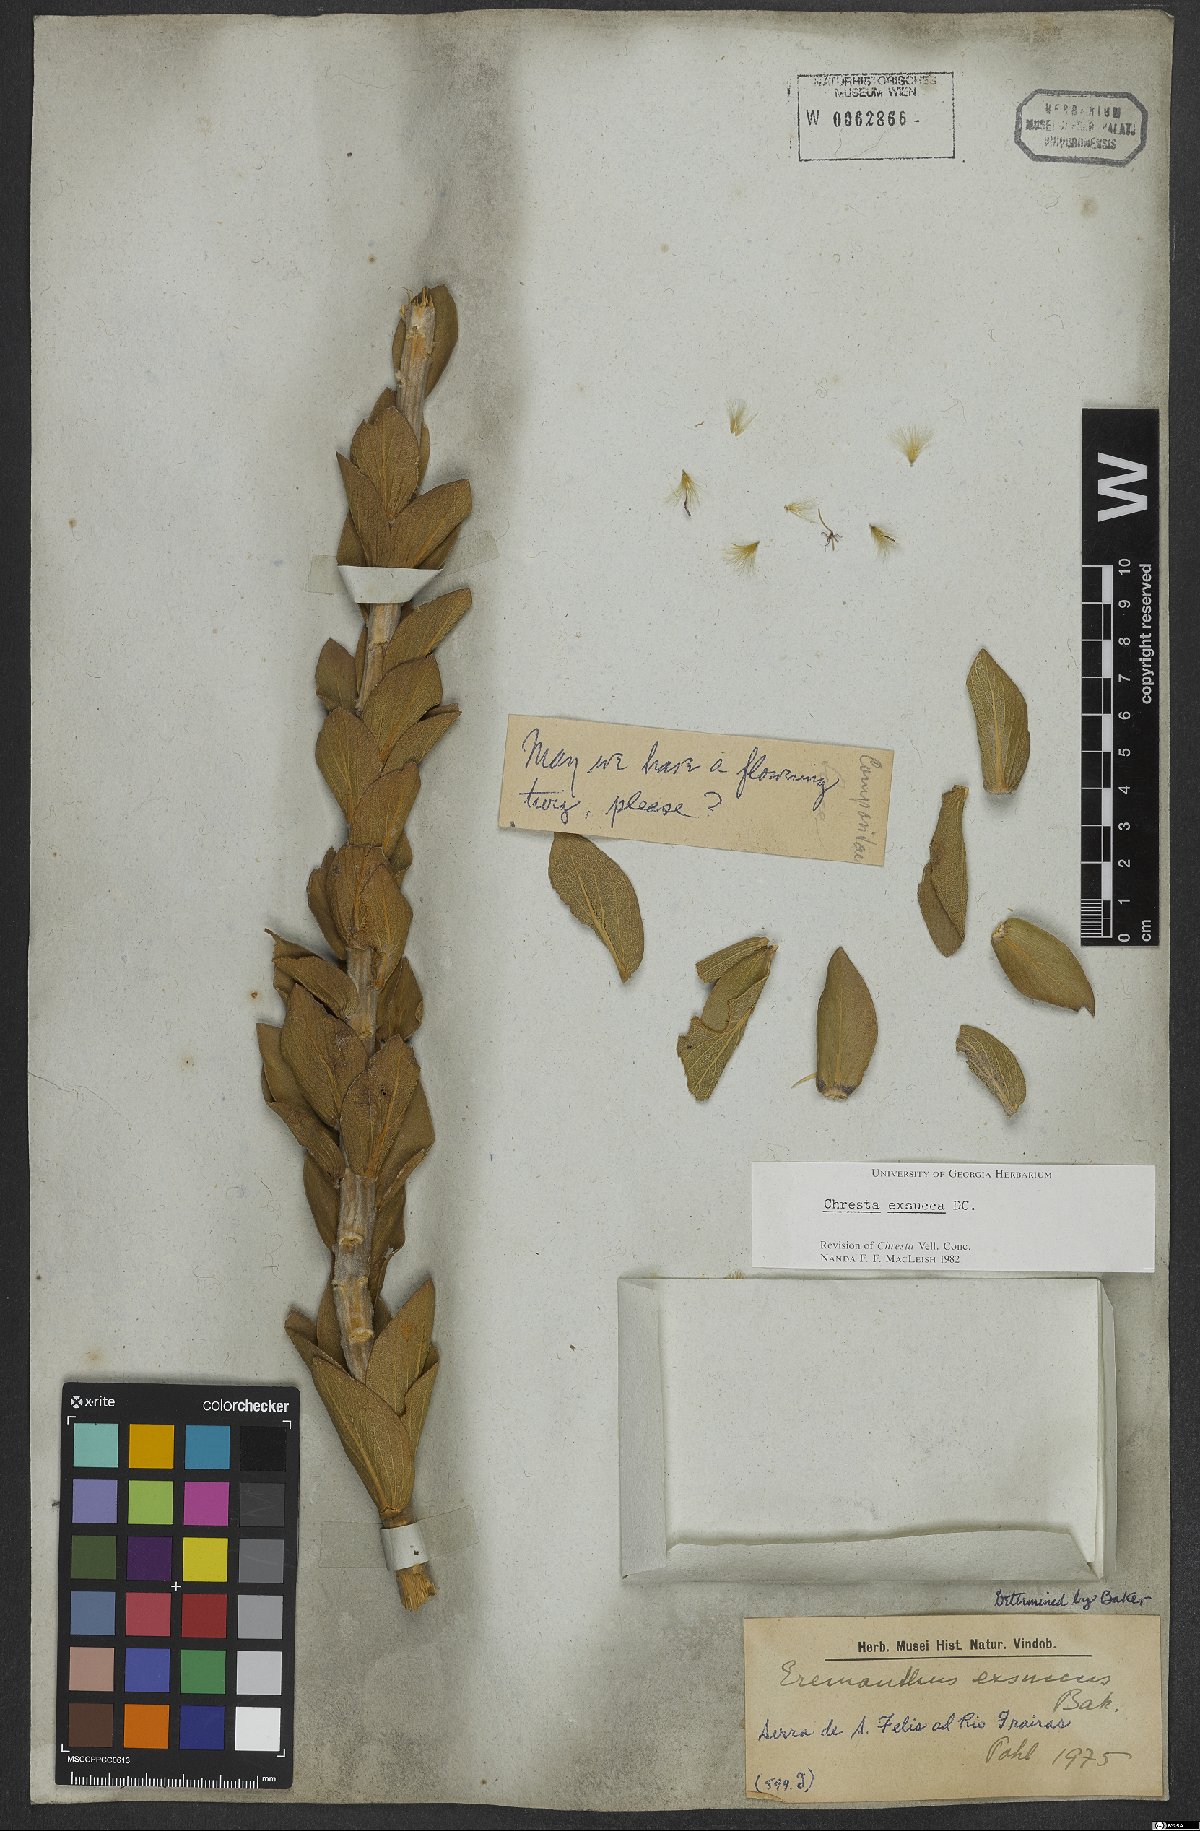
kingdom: Plantae
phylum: Tracheophyta
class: Magnoliopsida
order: Asterales
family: Asteraceae
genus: Chresta
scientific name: Chresta exsucca
